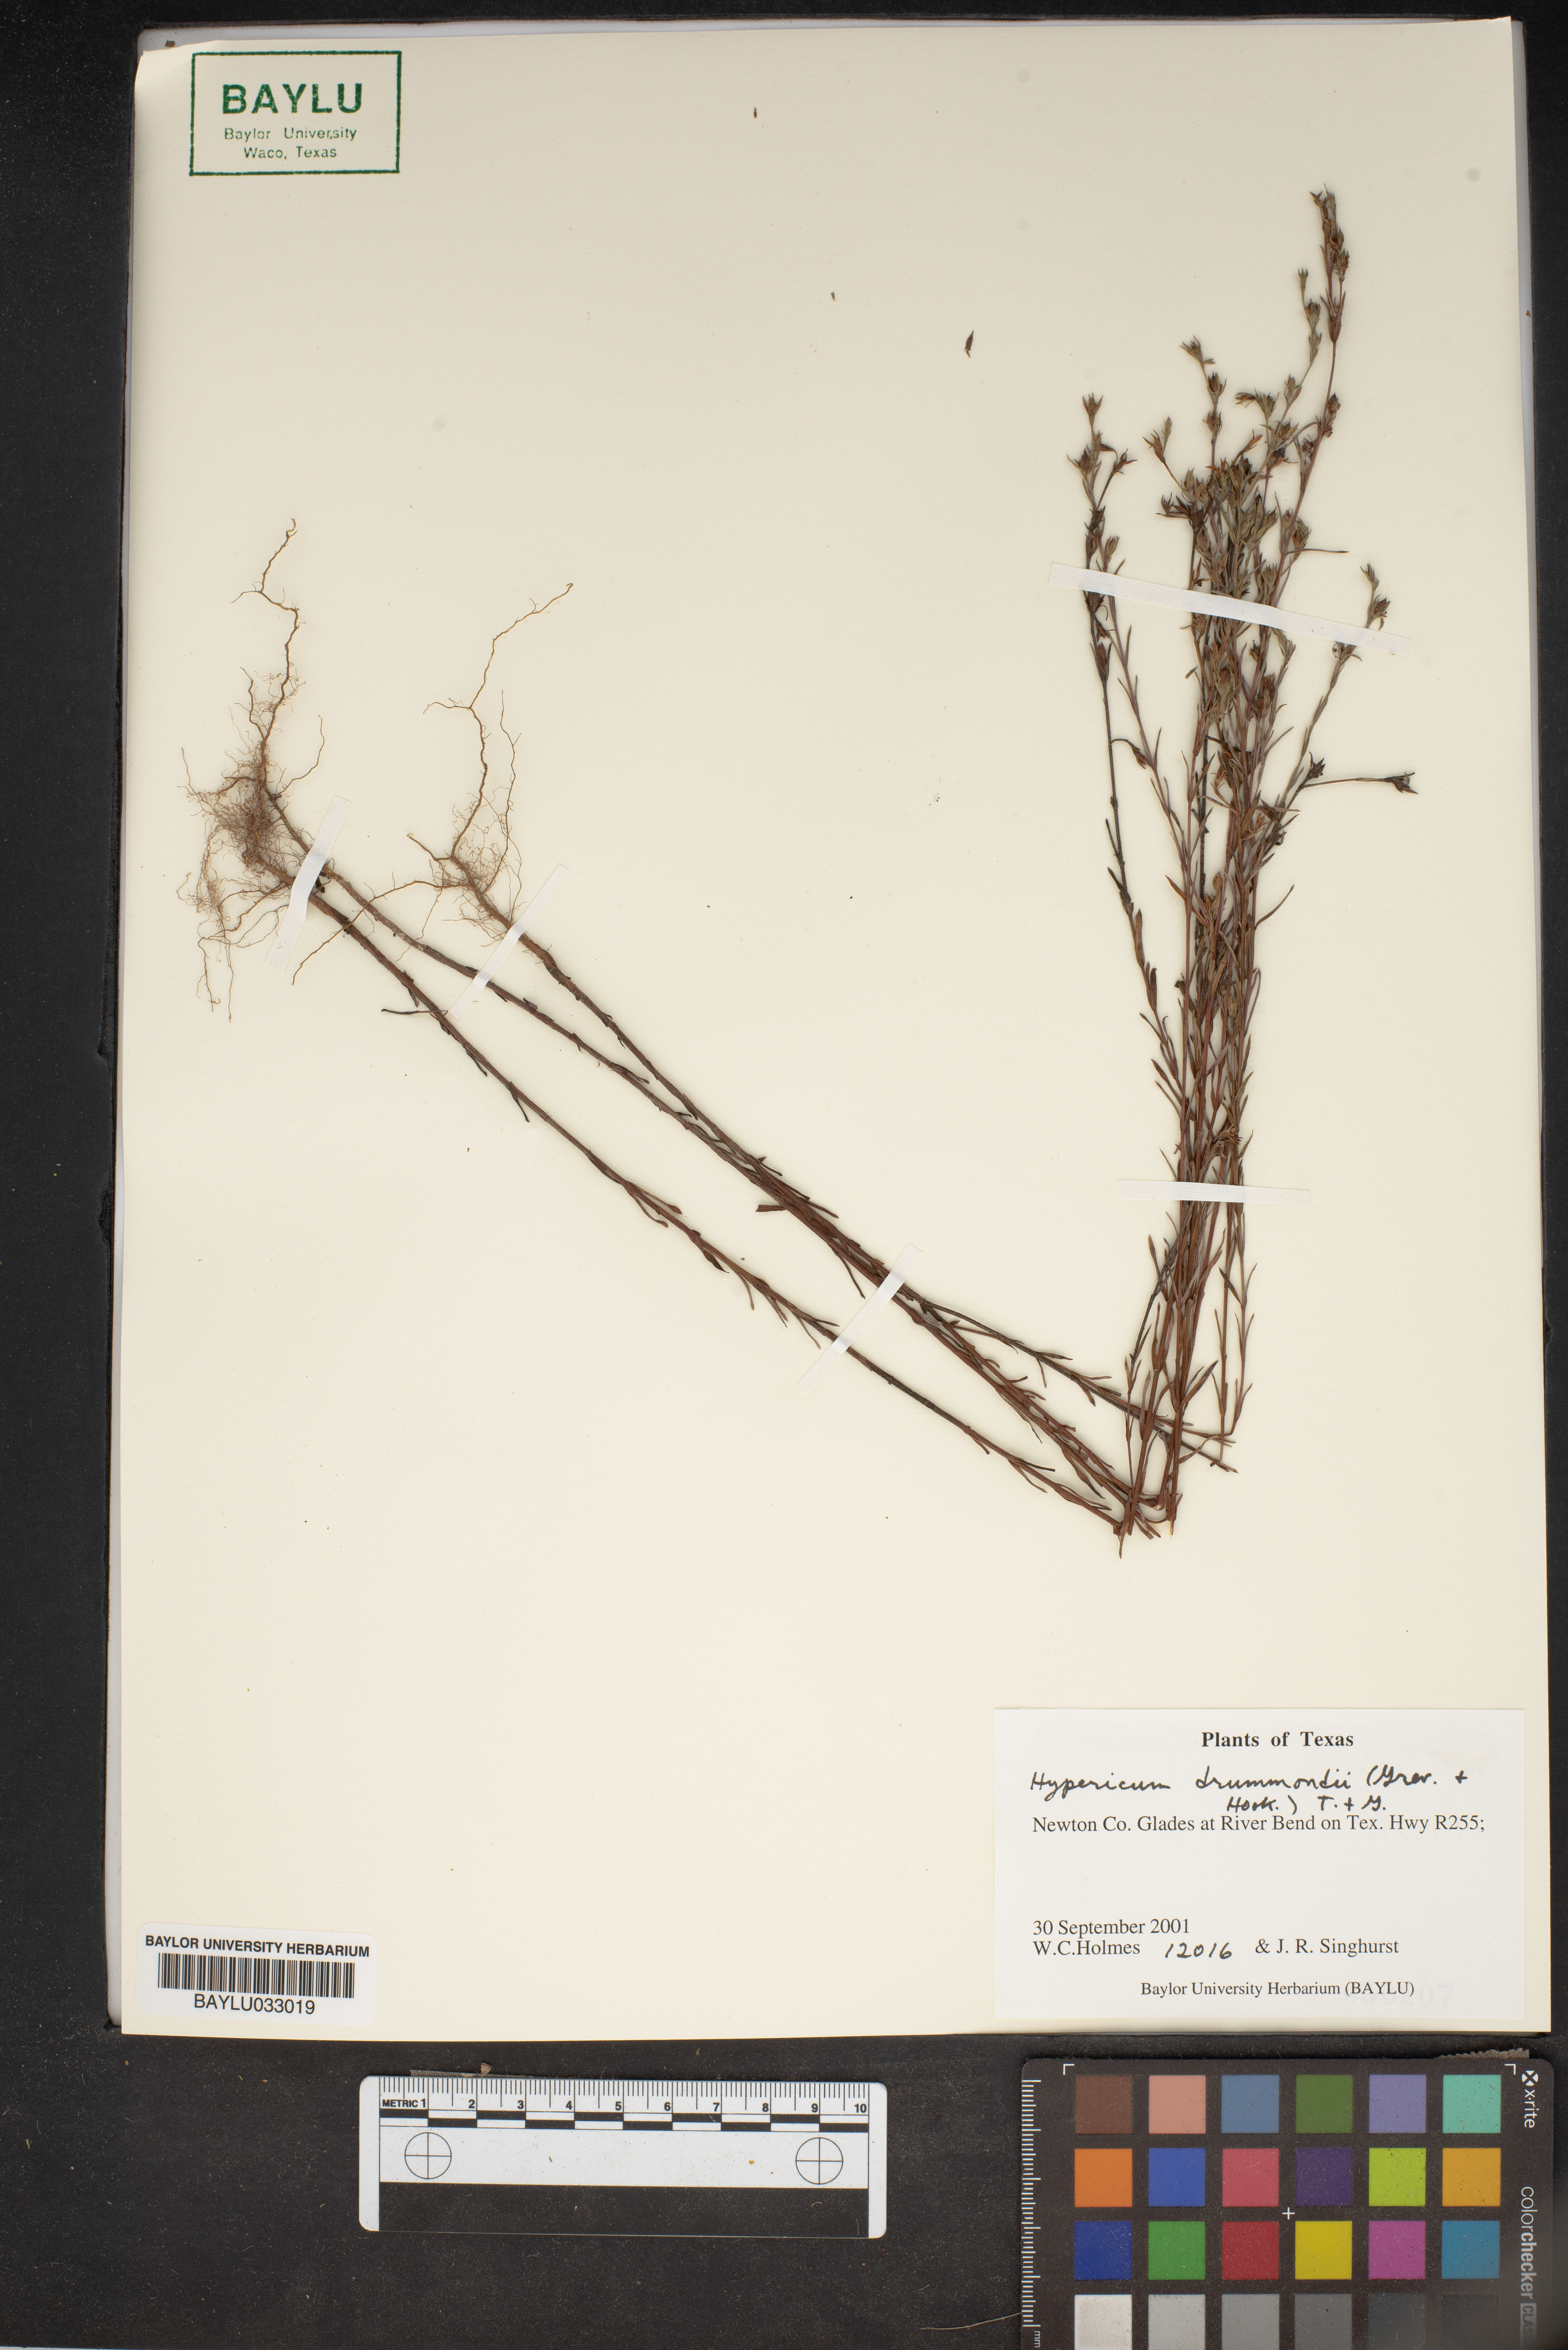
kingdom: Plantae
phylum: Tracheophyta
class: Magnoliopsida
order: Malpighiales
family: Hypericaceae
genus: Hypericum
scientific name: Hypericum drummondii
